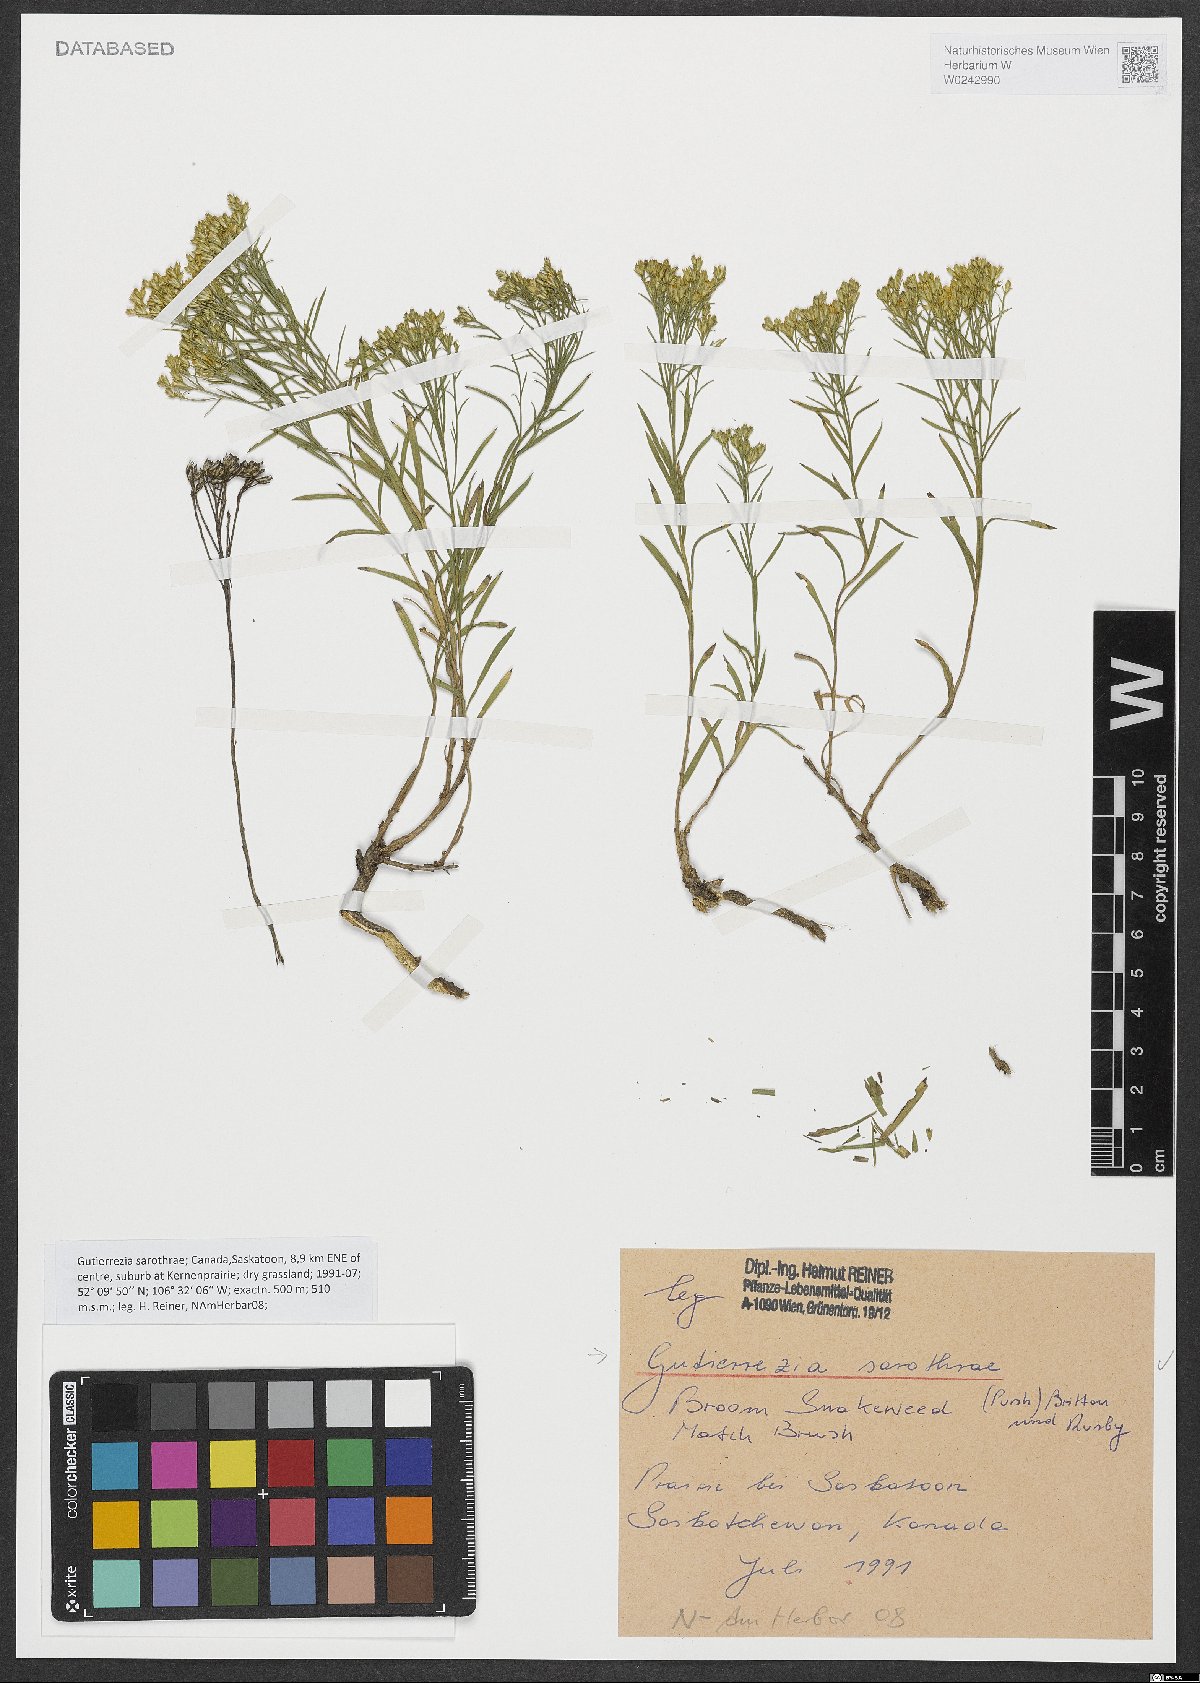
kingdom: Plantae
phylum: Tracheophyta
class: Magnoliopsida
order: Asterales
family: Asteraceae
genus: Gutierrezia
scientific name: Gutierrezia sarothrae
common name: Broom snakeweed
